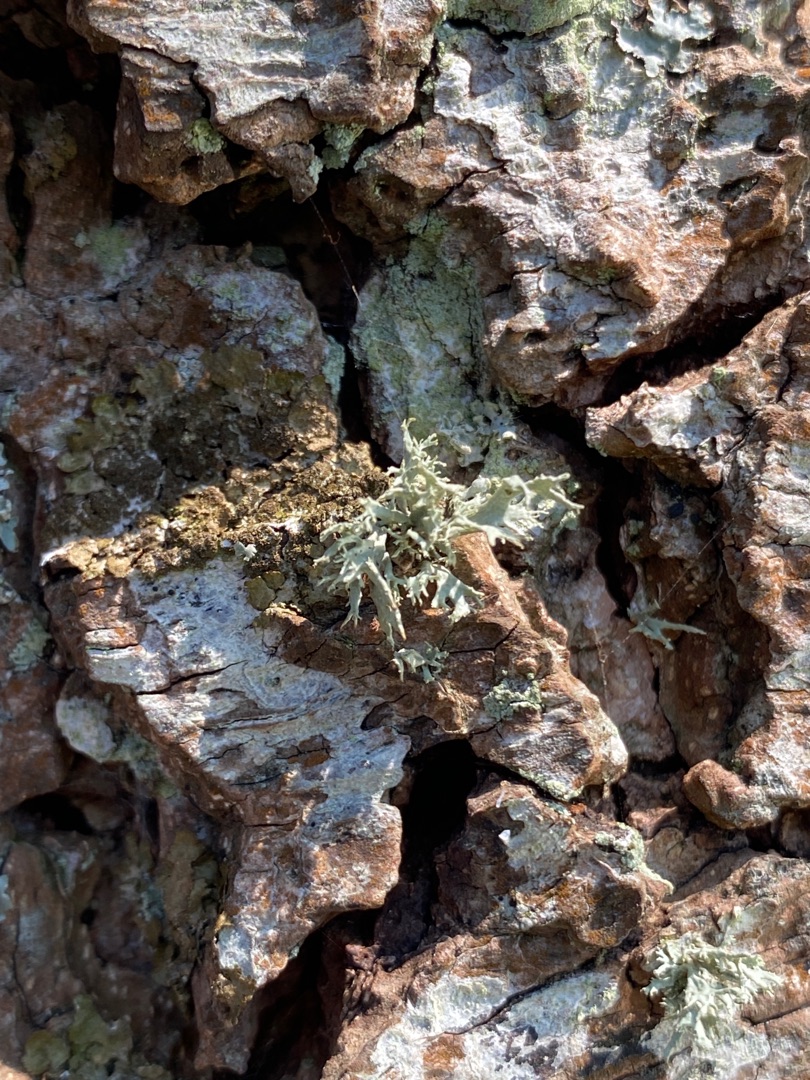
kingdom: Fungi
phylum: Ascomycota
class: Lecanoromycetes
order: Lecanorales
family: Ramalinaceae
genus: Ramalina
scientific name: Ramalina farinacea
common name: Melet grenlav
